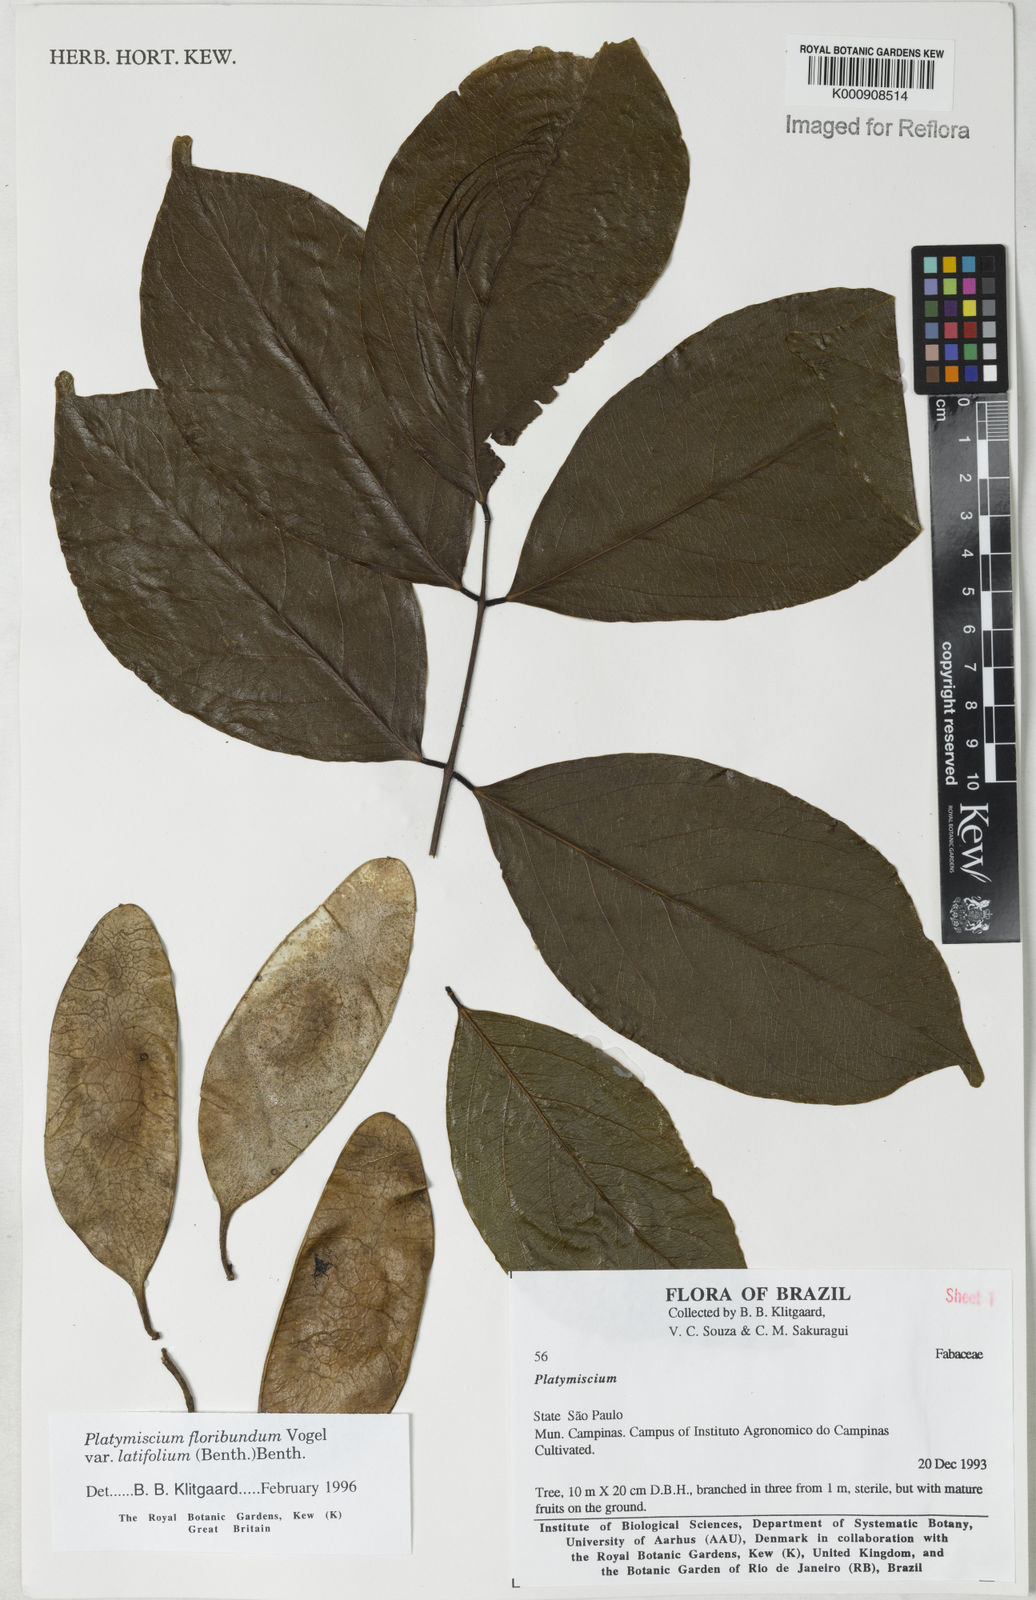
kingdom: Plantae
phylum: Tracheophyta
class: Magnoliopsida
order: Fabales
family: Fabaceae
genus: Platymiscium
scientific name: Platymiscium floribundum
